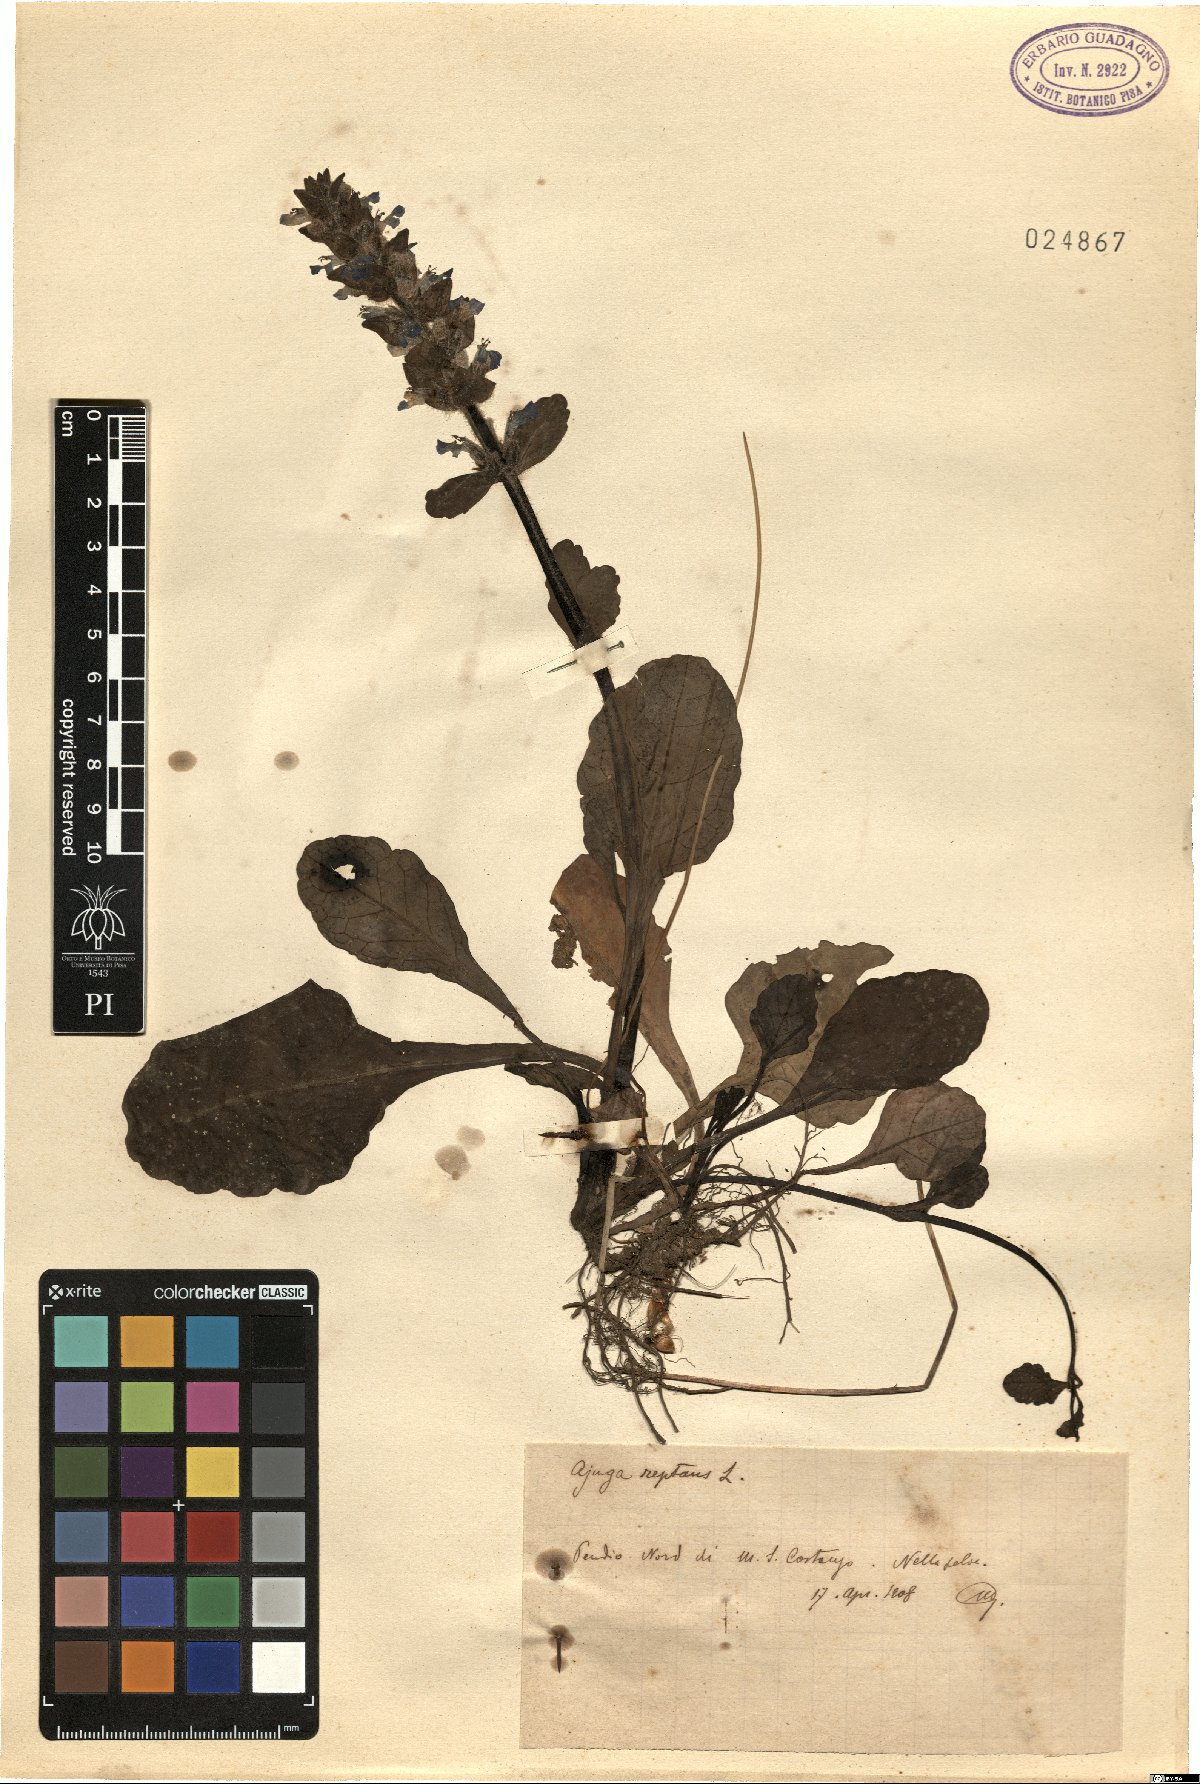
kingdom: Plantae
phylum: Tracheophyta
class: Magnoliopsida
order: Lamiales
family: Lamiaceae
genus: Ajuga
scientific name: Ajuga reptans
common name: Bugle
